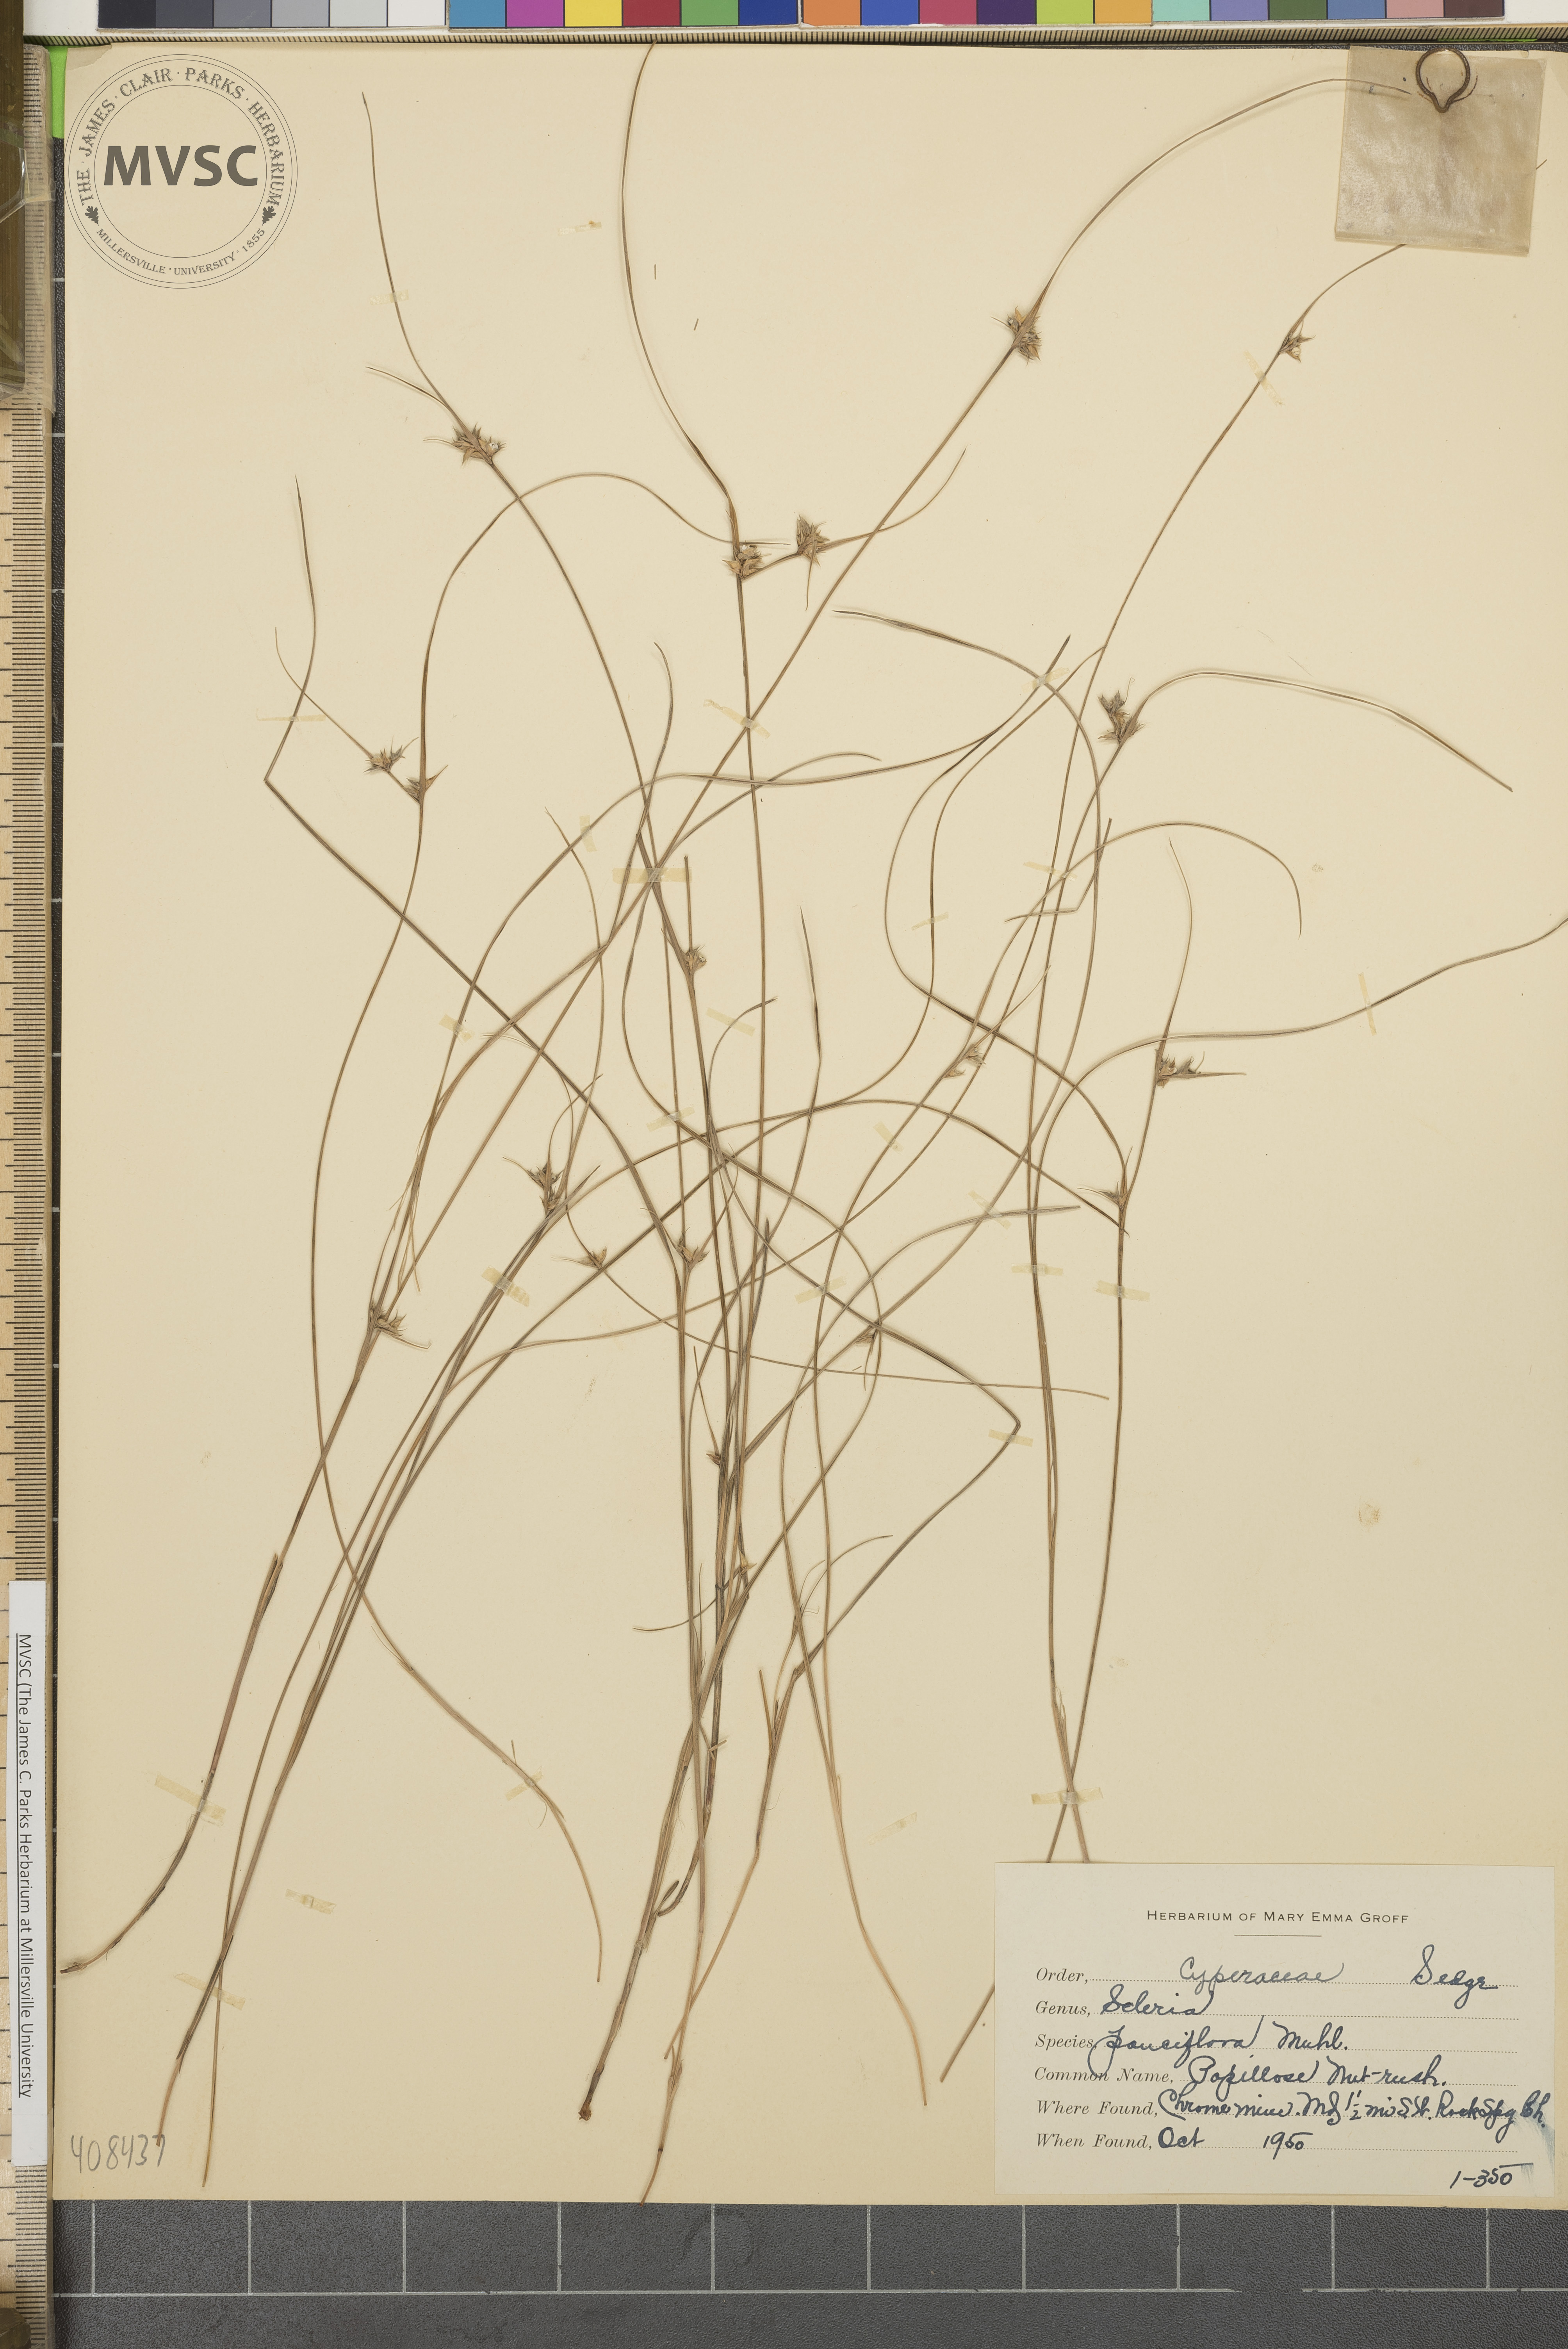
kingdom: Plantae
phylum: Tracheophyta
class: Liliopsida
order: Poales
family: Cyperaceae
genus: Scleria
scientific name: Scleria pauciflora
